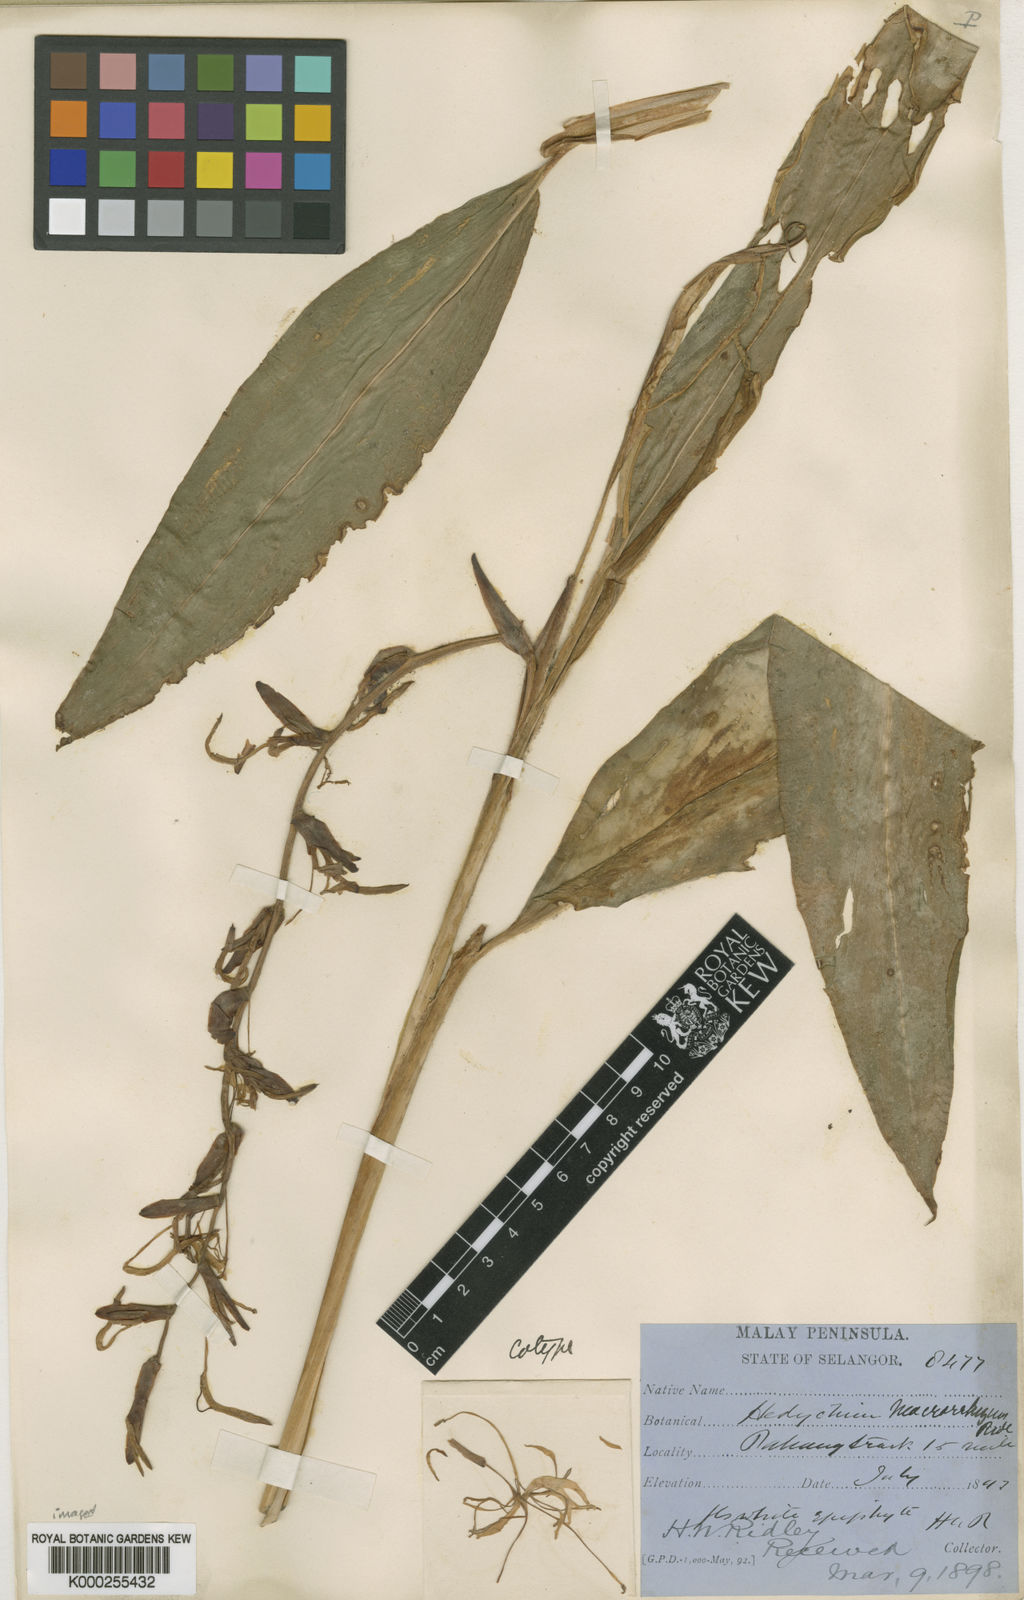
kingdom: Plantae
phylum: Tracheophyta
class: Liliopsida
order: Zingiberales
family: Zingiberaceae
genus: Hedychium
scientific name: Hedychium macrorrhizum
